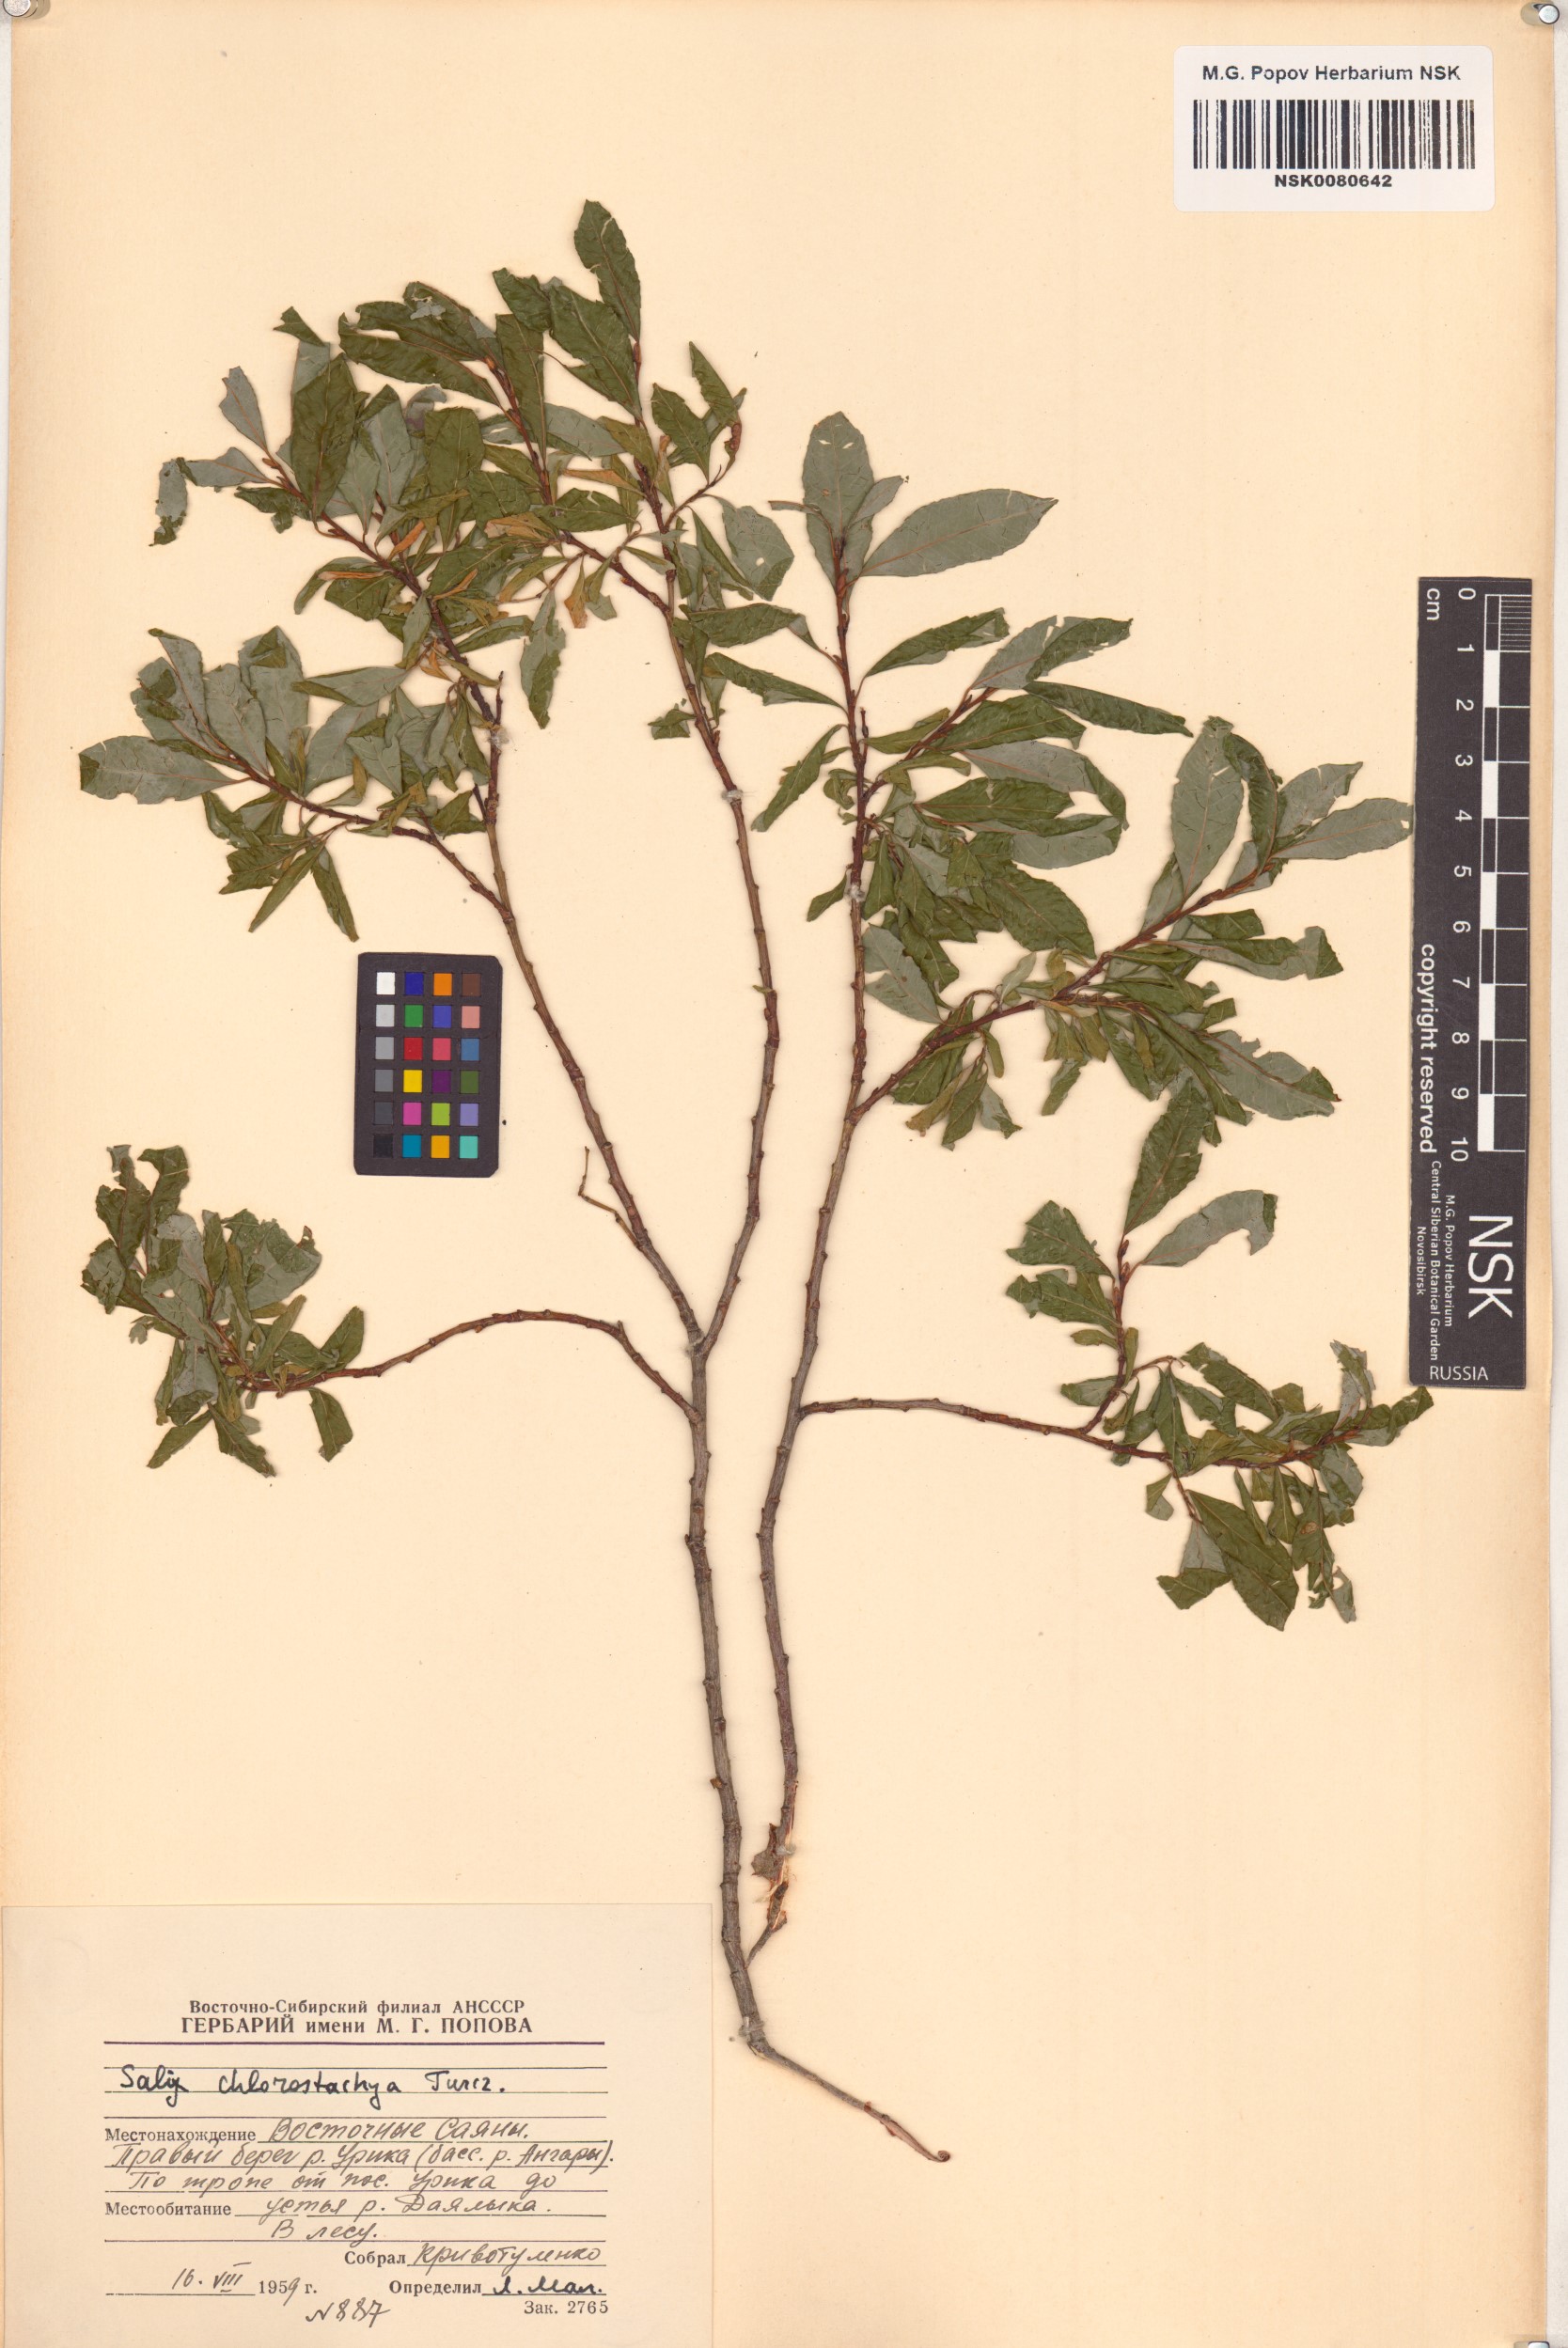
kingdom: Plantae
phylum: Tracheophyta
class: Magnoliopsida
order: Malpighiales
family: Salicaceae
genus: Salix
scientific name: Salix rhamnifolia
